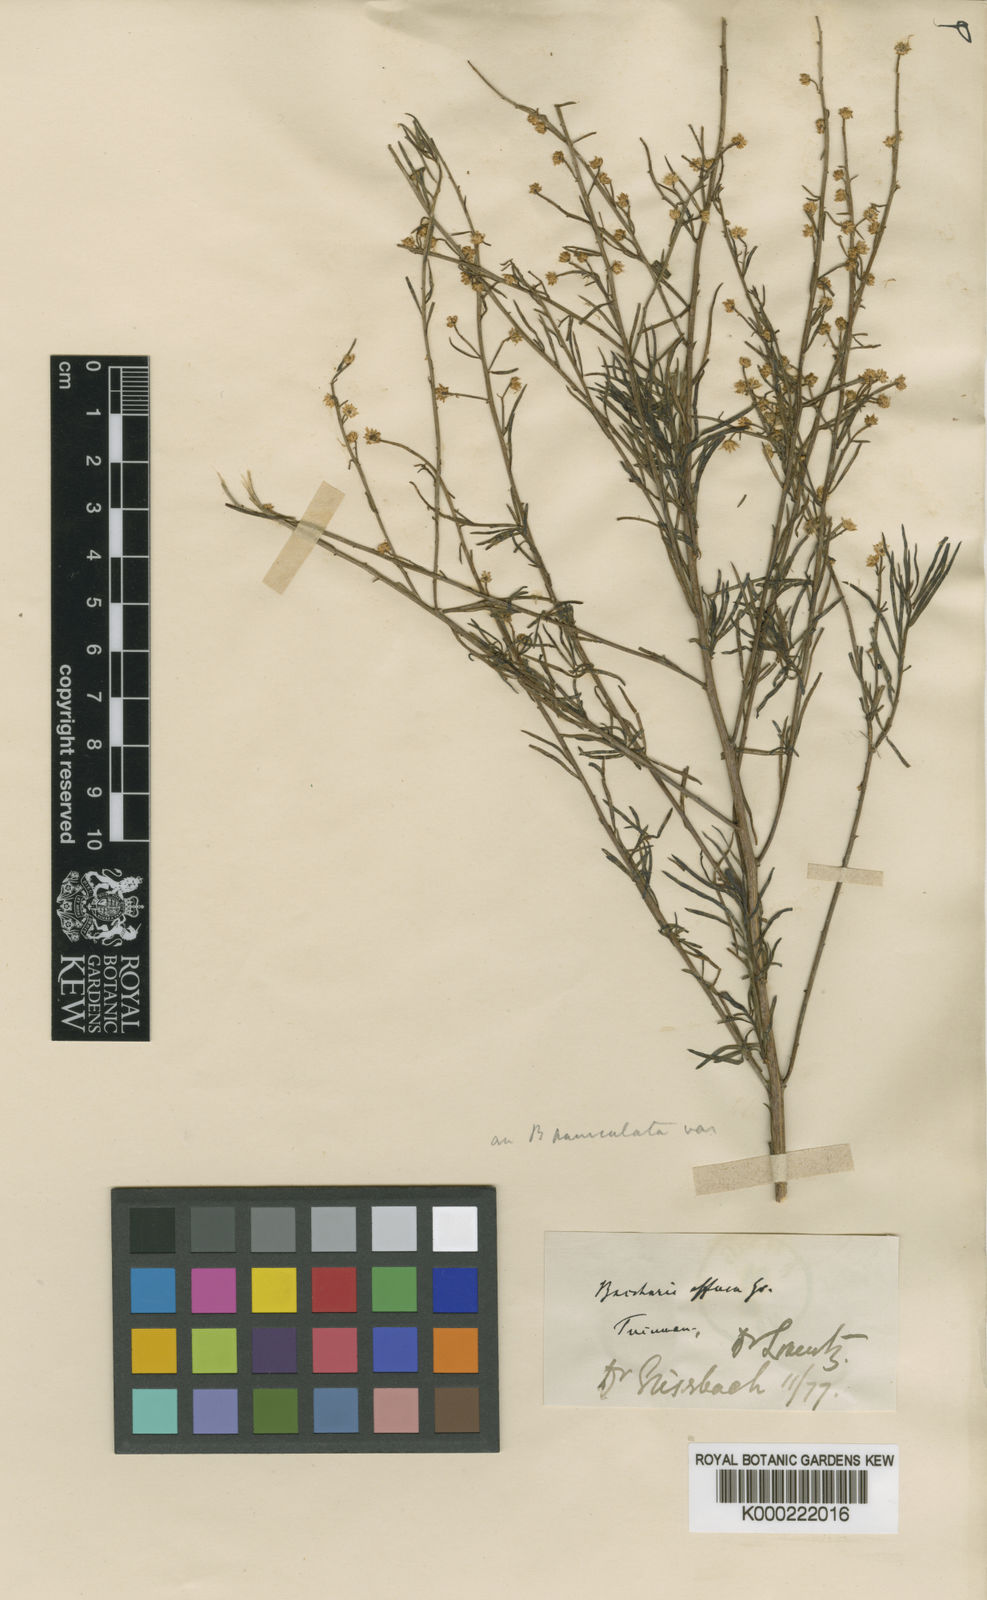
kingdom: Plantae
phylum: Tracheophyta
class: Magnoliopsida
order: Asterales
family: Asteraceae
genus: Baccharis
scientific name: Baccharis effusa
